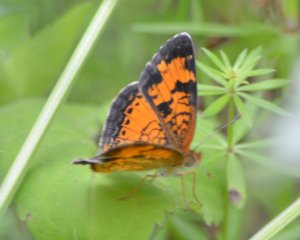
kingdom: Animalia
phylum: Arthropoda
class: Insecta
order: Lepidoptera
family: Nymphalidae
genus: Phyciodes
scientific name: Phyciodes tharos
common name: Northern Crescent
